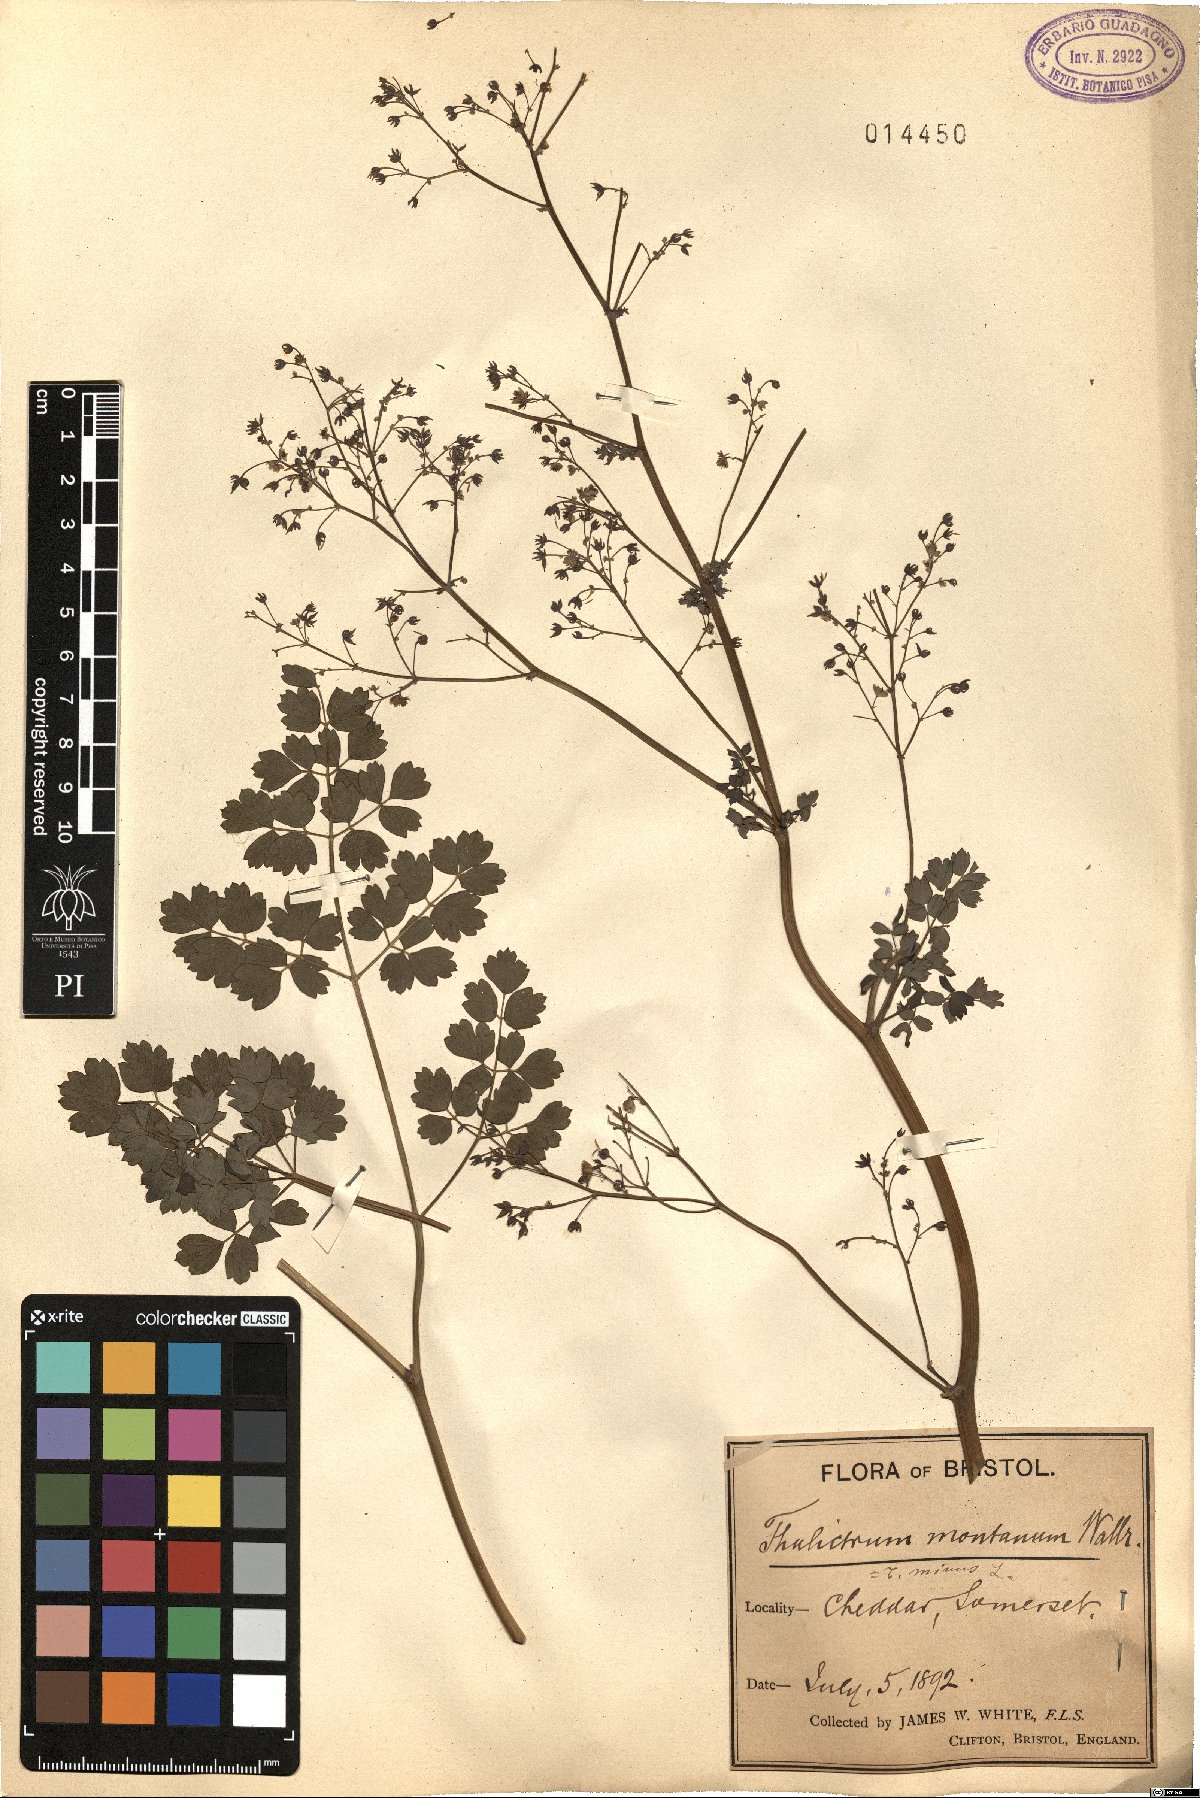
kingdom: Plantae
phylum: Tracheophyta
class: Magnoliopsida
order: Ranunculales
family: Ranunculaceae
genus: Thalictrum
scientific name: Thalictrum minus
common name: Lesser meadow-rue
